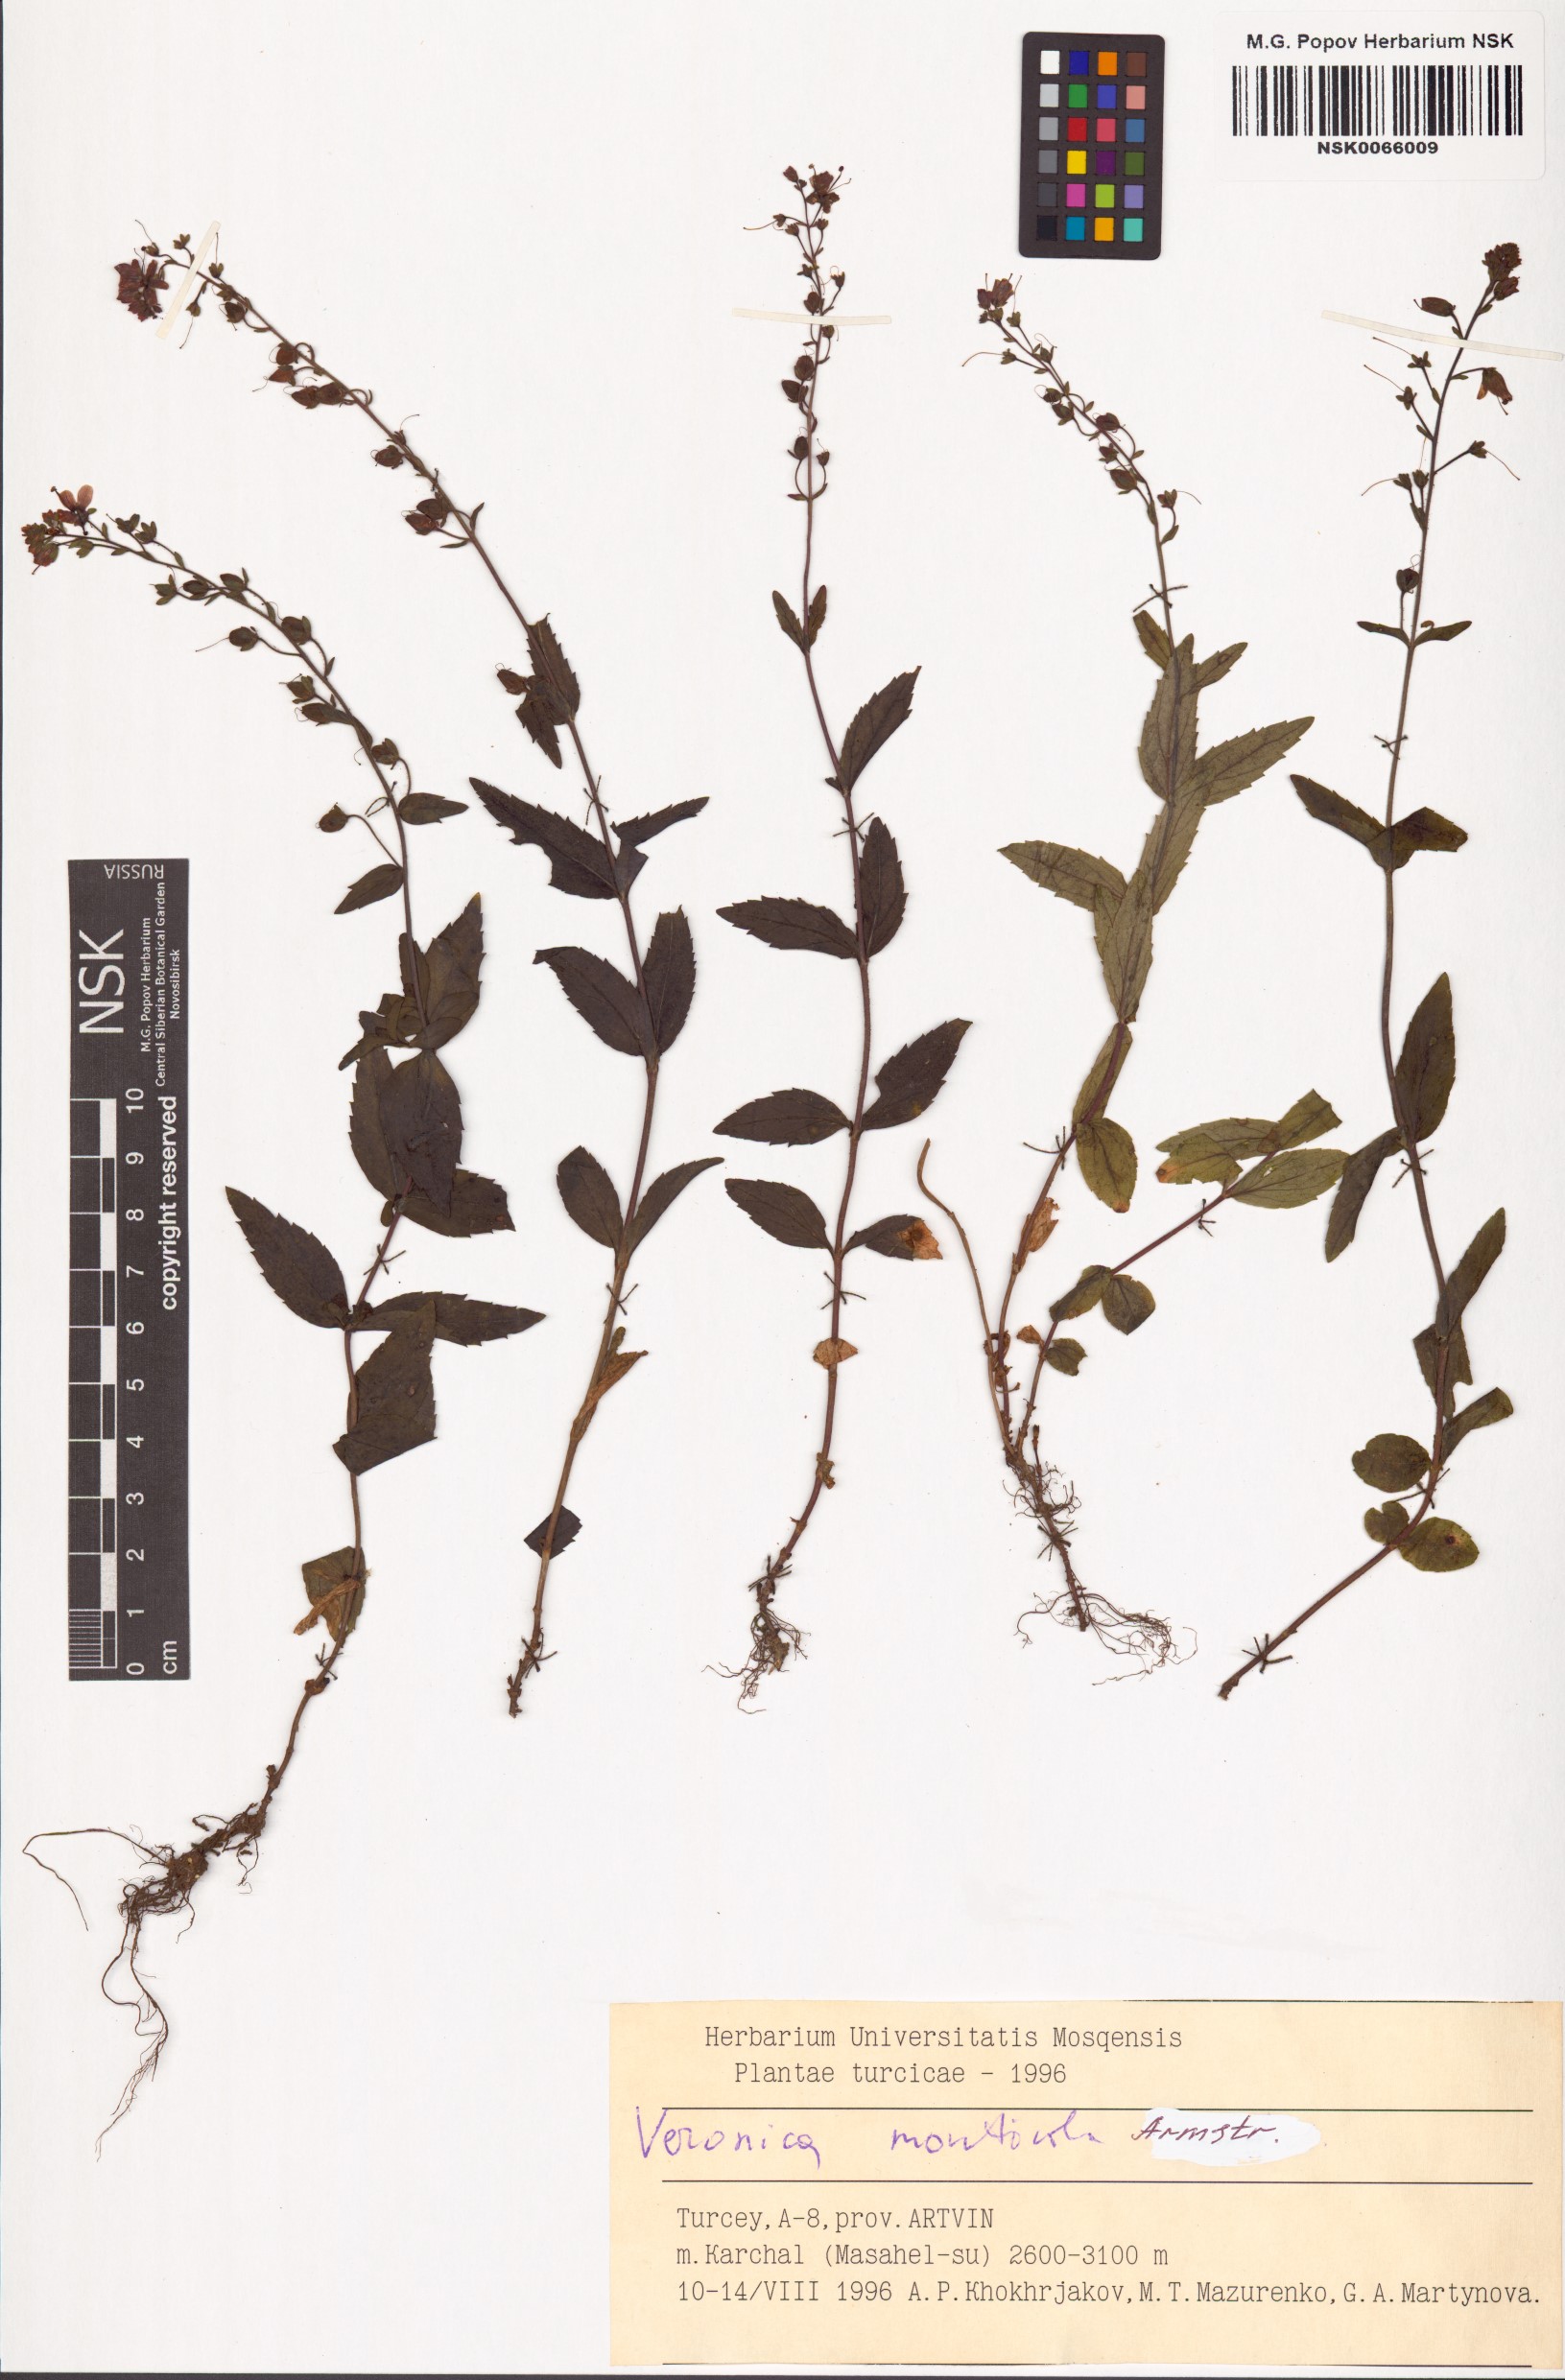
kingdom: Plantae
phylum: Tracheophyta
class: Magnoliopsida
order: Lamiales
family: Plantaginaceae
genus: Veronica
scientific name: Veronica monticola
